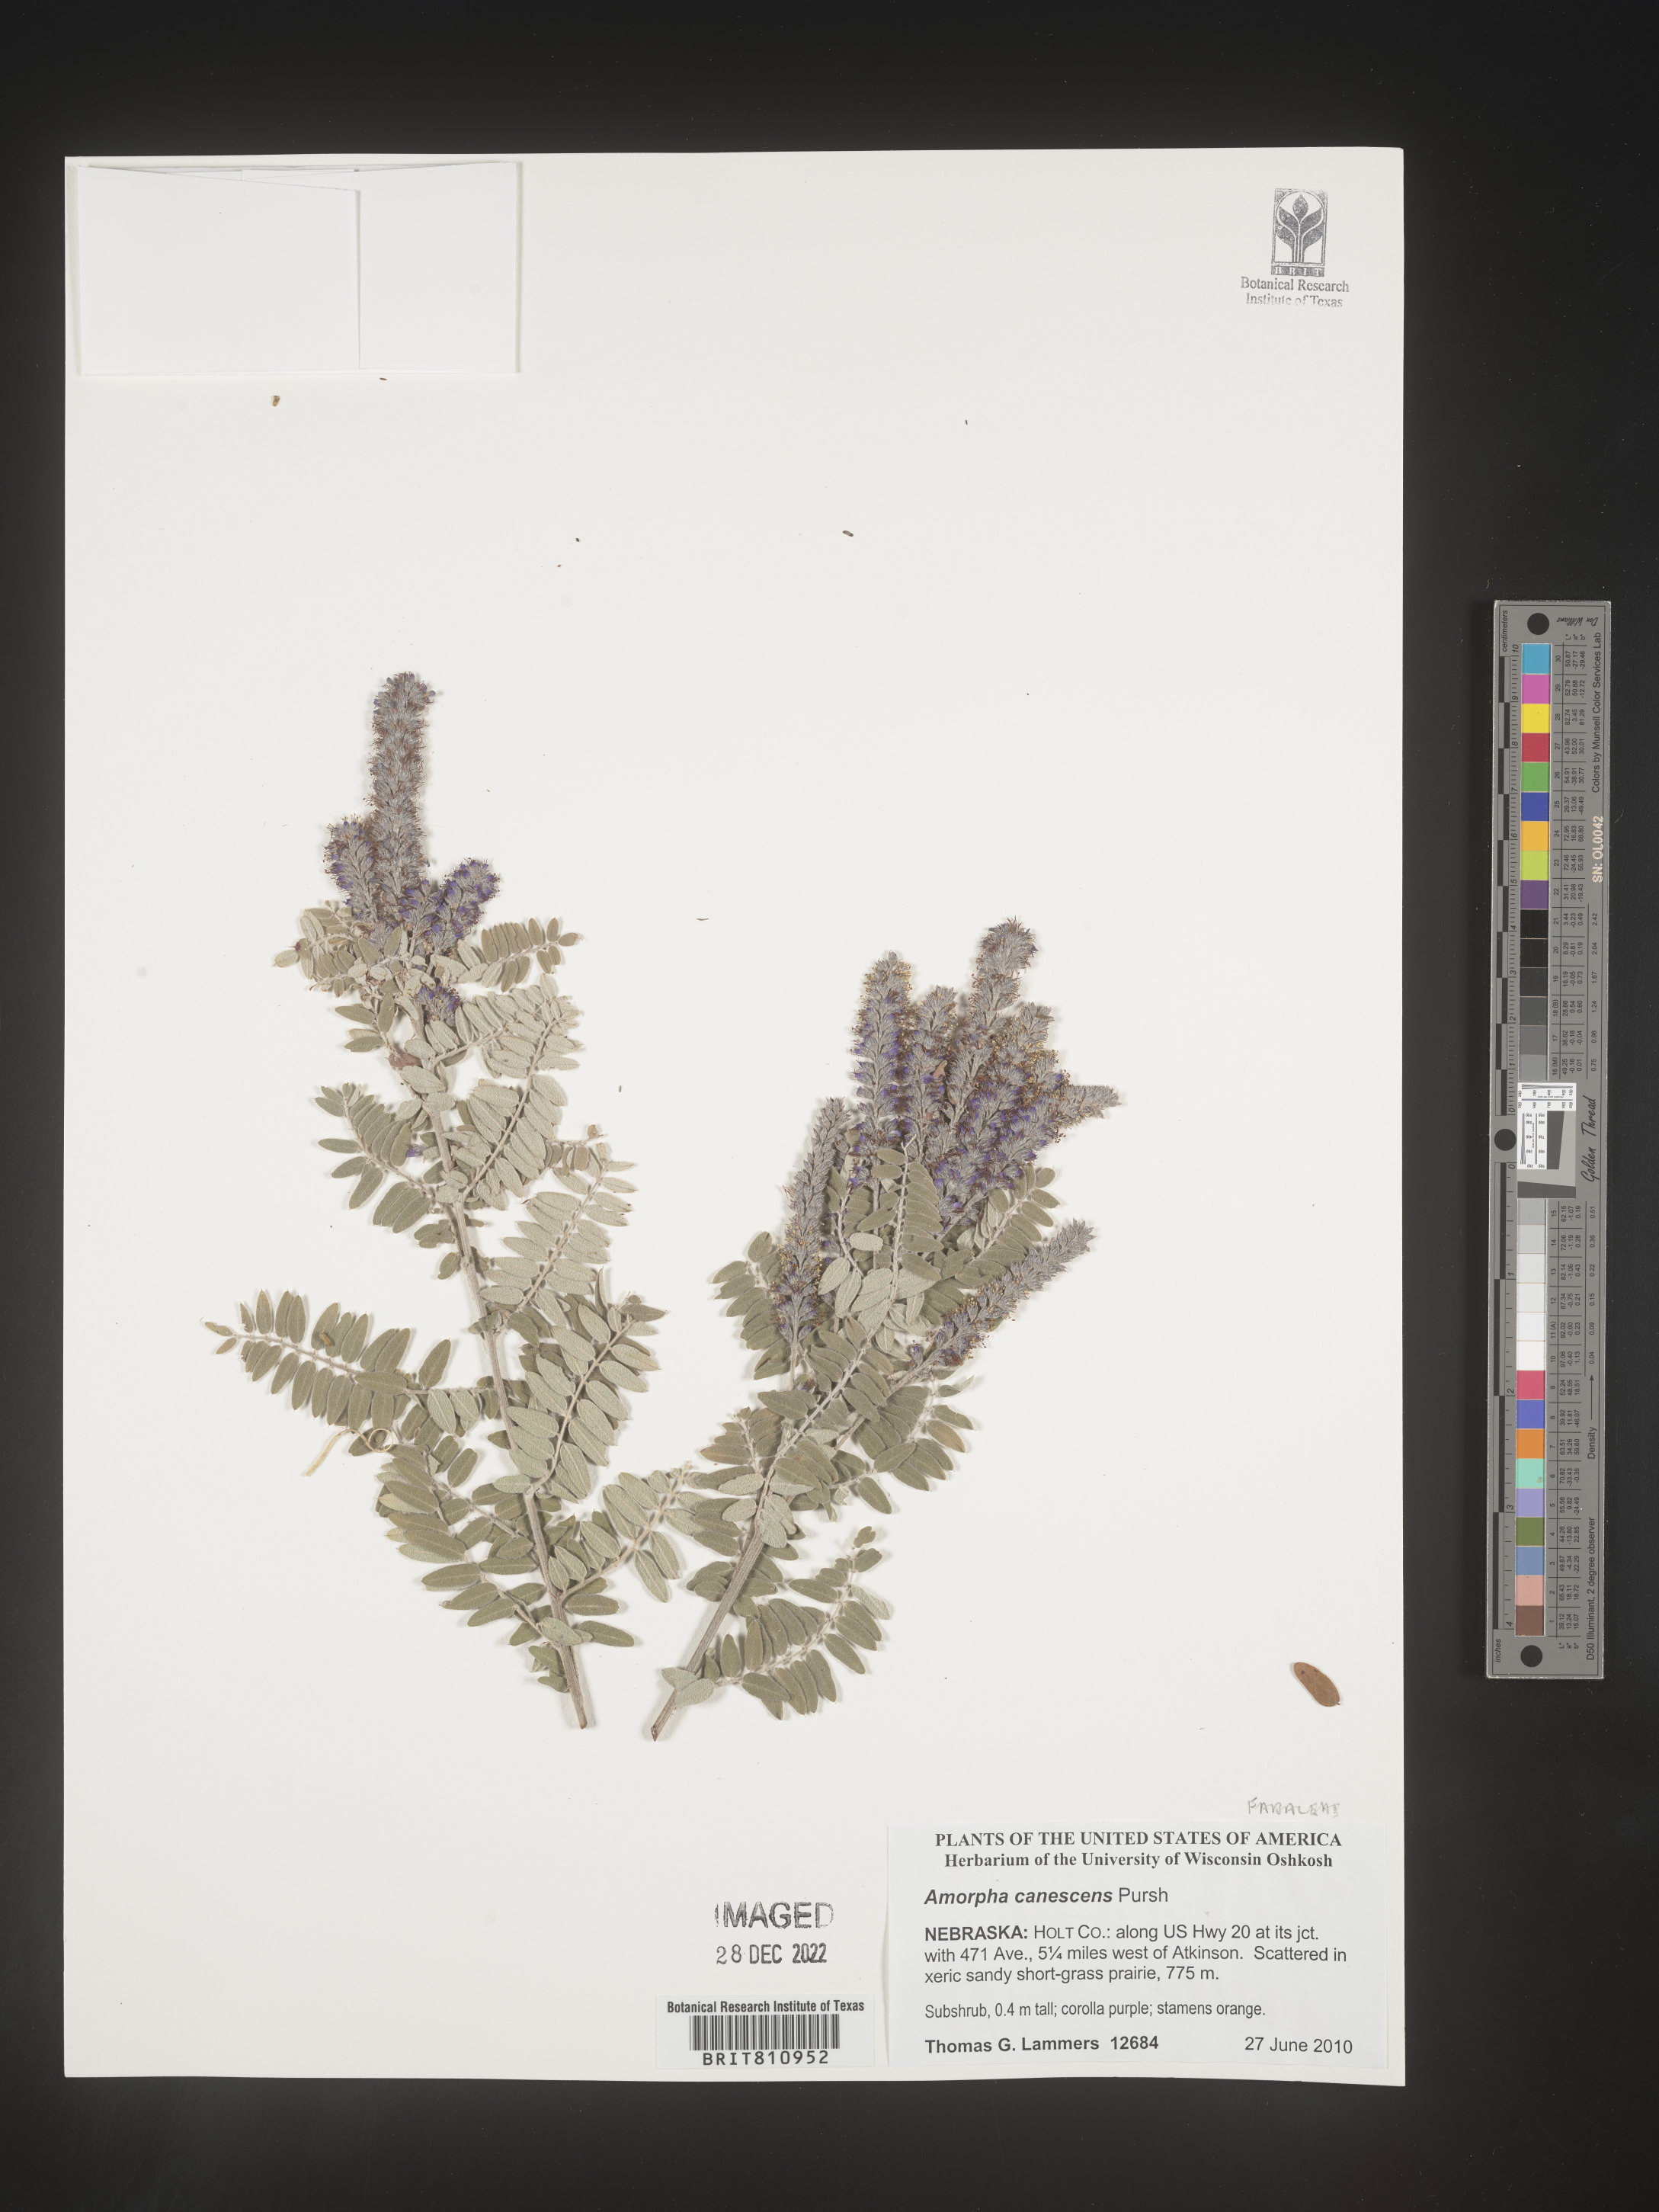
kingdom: Plantae
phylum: Tracheophyta
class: Magnoliopsida
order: Fabales
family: Fabaceae
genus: Amorpha
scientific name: Amorpha canescens
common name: Leadplant
